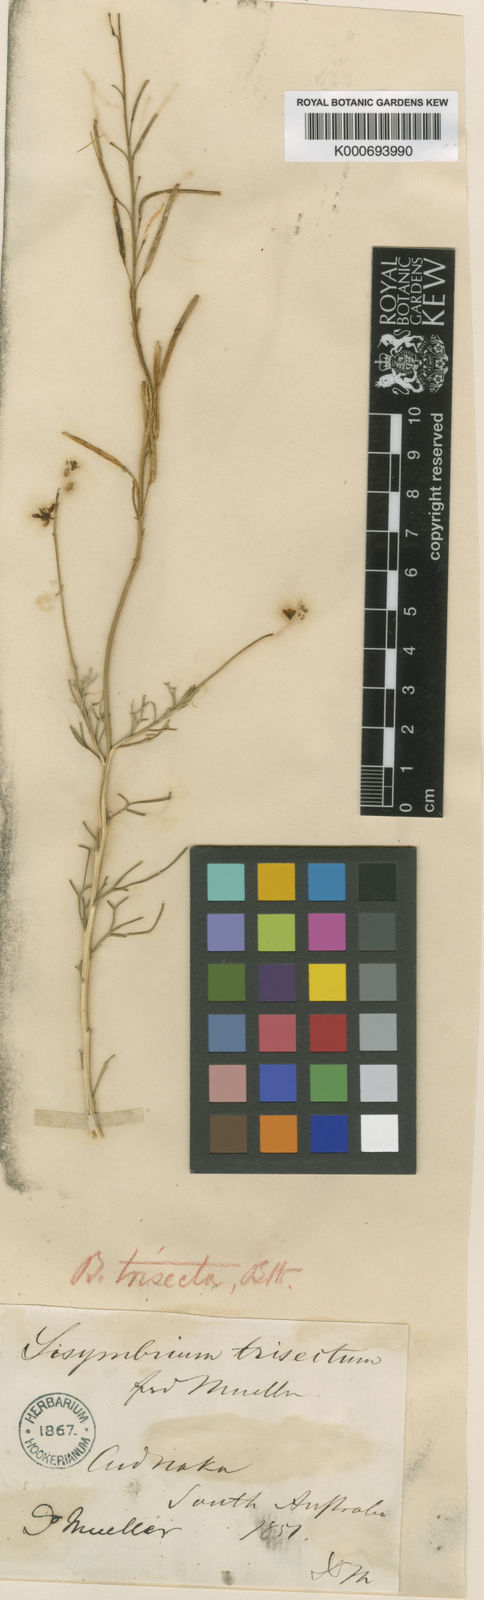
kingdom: Plantae
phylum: Tracheophyta
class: Magnoliopsida
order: Brassicales
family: Brassicaceae
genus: Arabidella
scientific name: Arabidella trisecta
